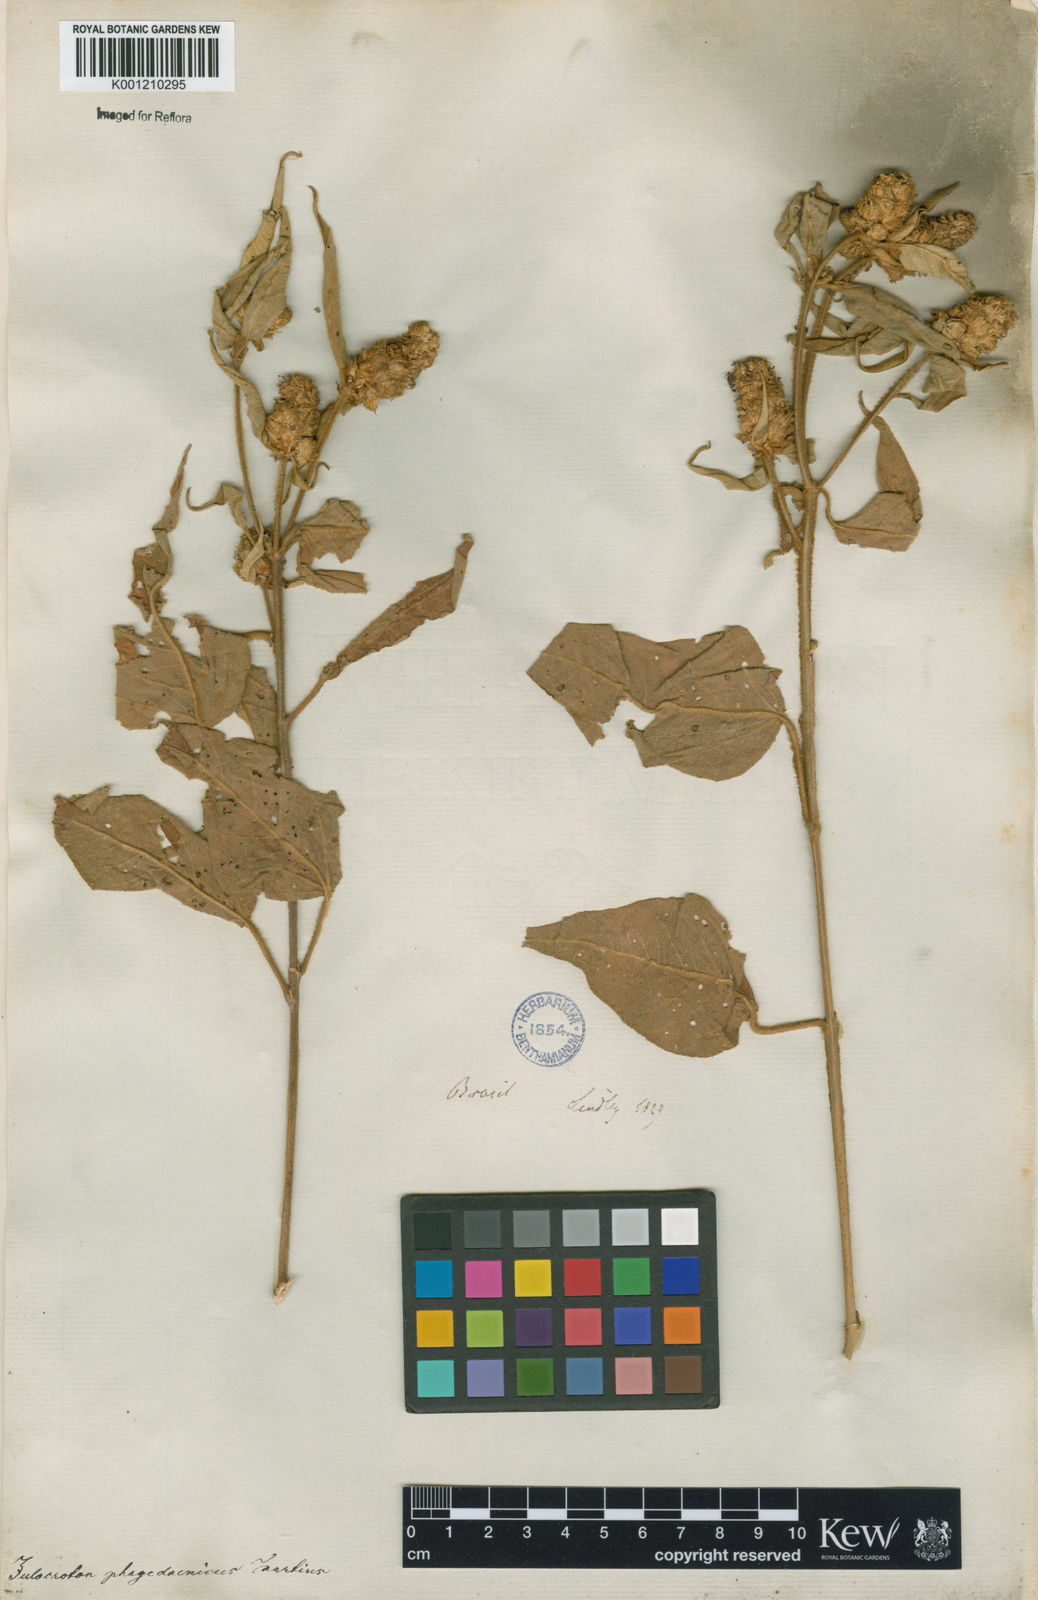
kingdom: Plantae
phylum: Tracheophyta
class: Magnoliopsida
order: Malpighiales
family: Euphorbiaceae
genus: Croton
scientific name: Croton triqueter
